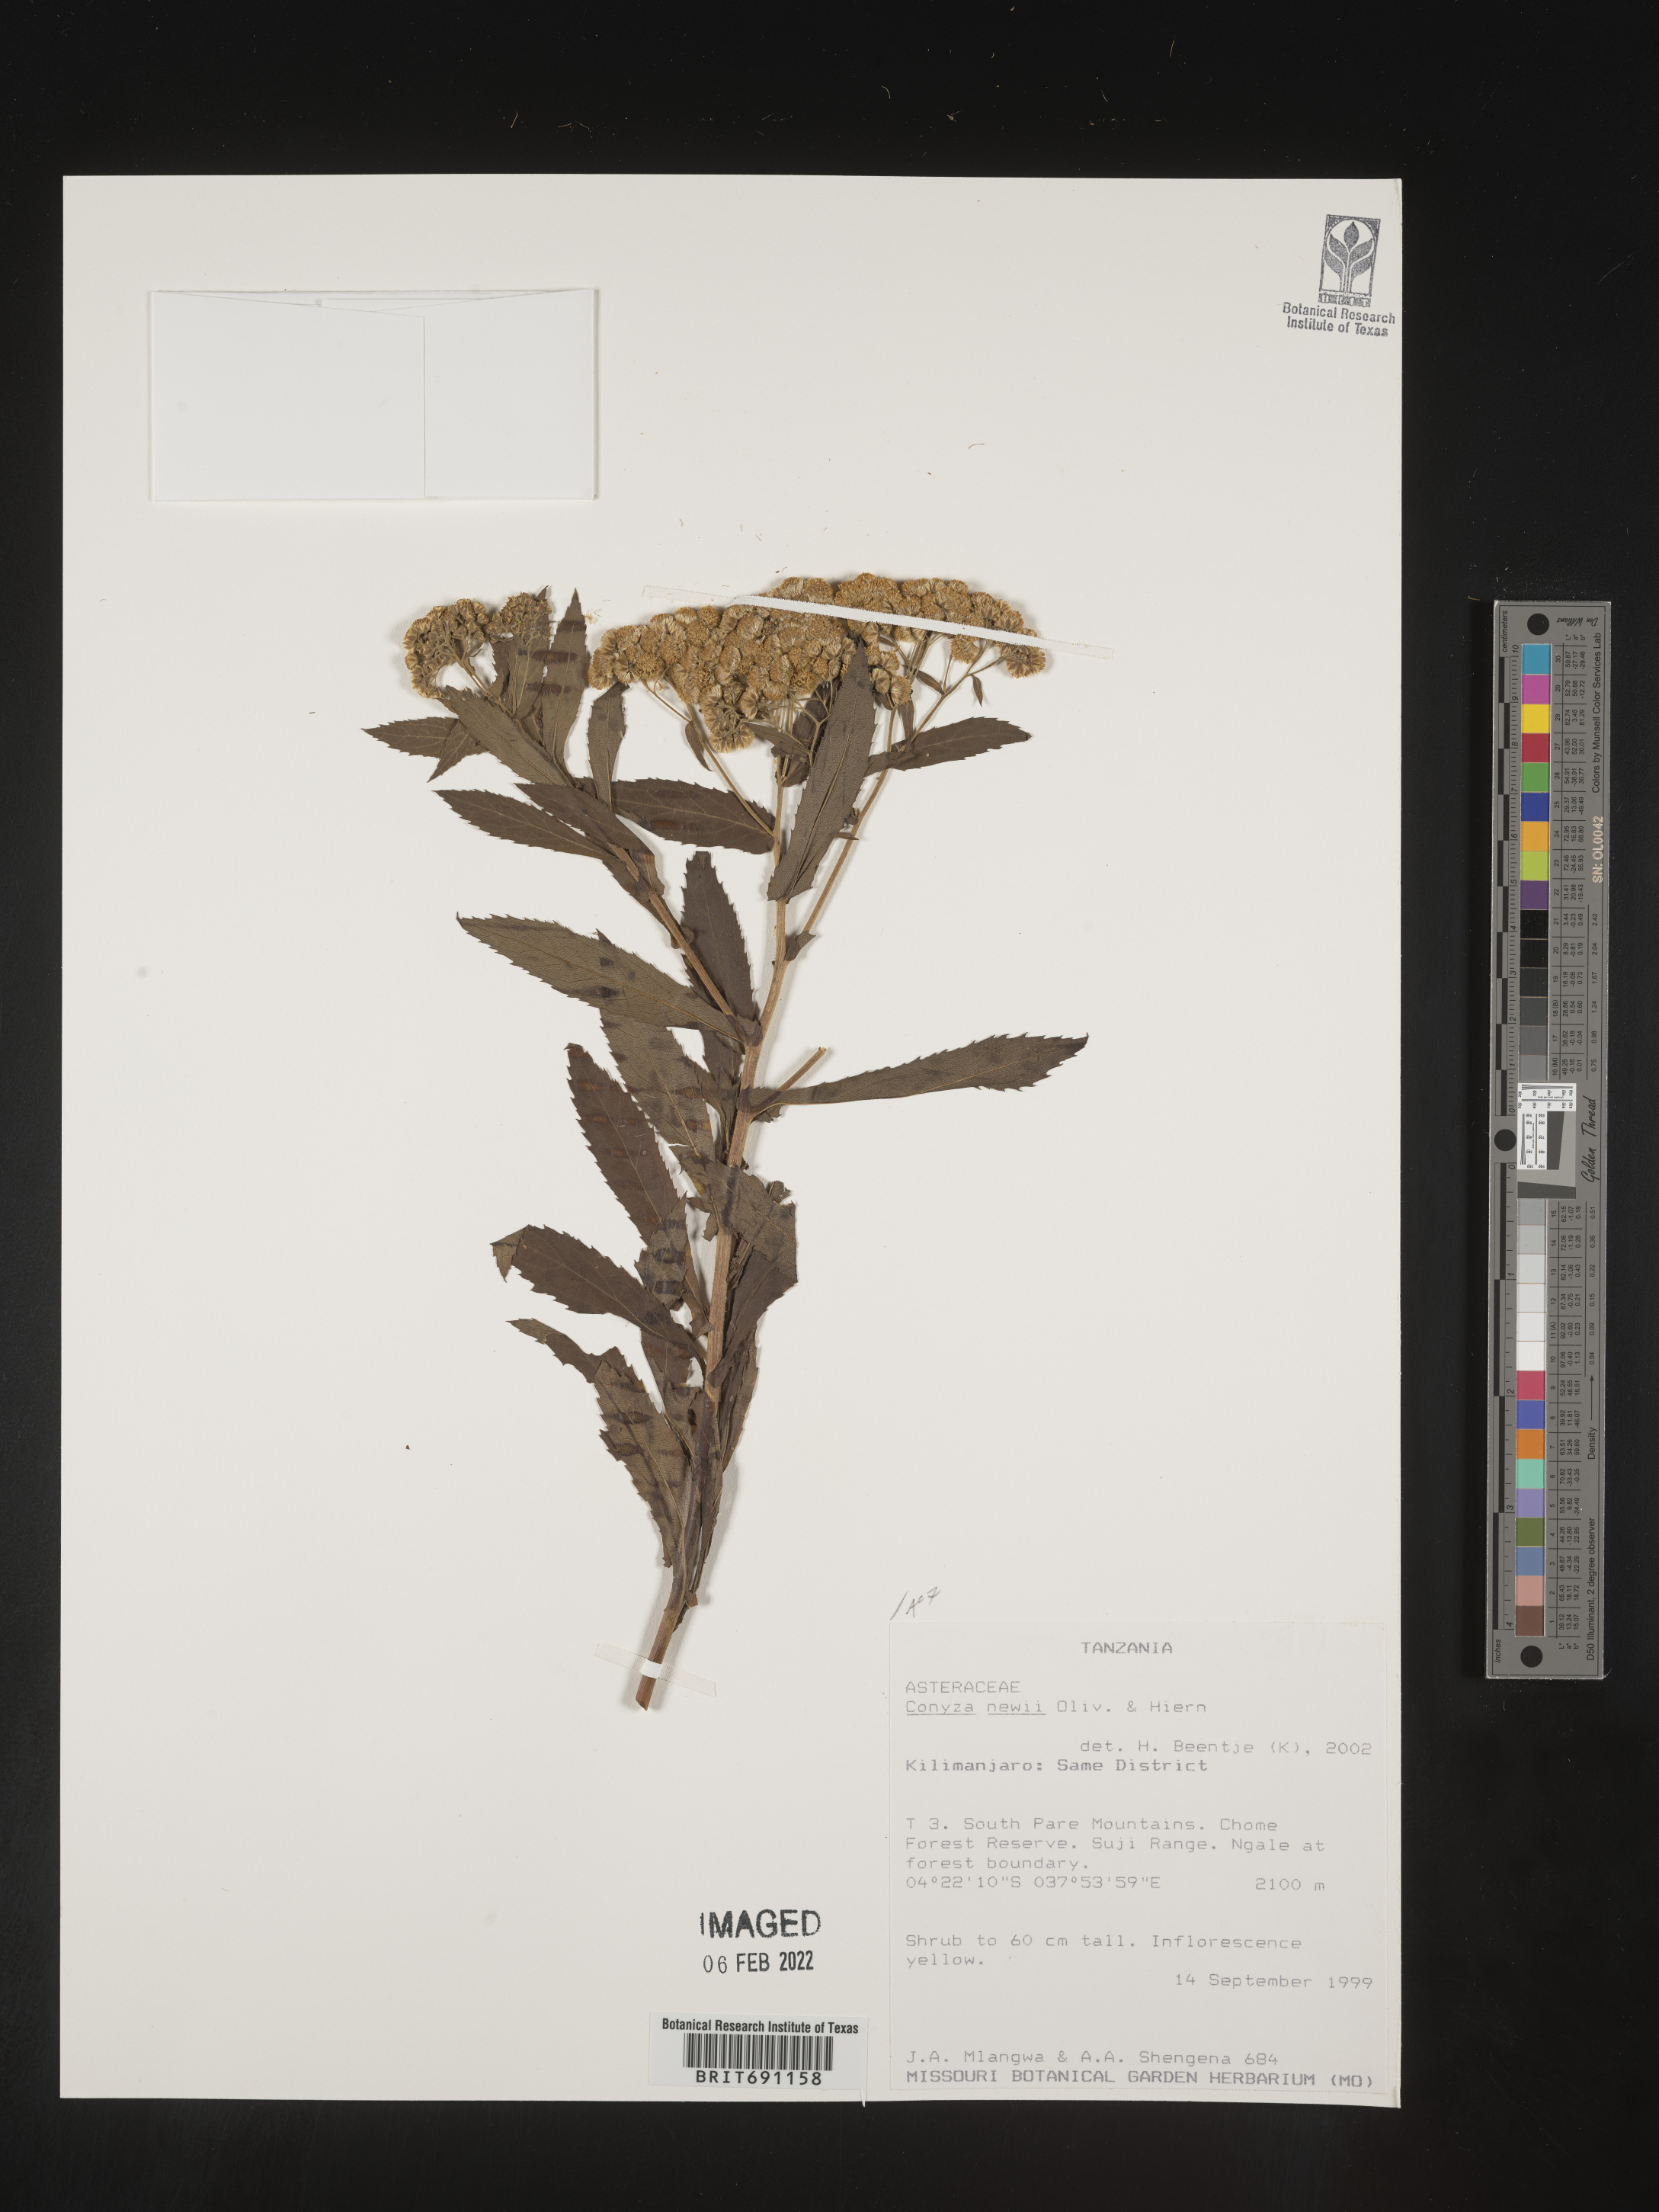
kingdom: Plantae
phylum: Tracheophyta
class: Magnoliopsida
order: Asterales
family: Asteraceae
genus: Conyza
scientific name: Conyza
